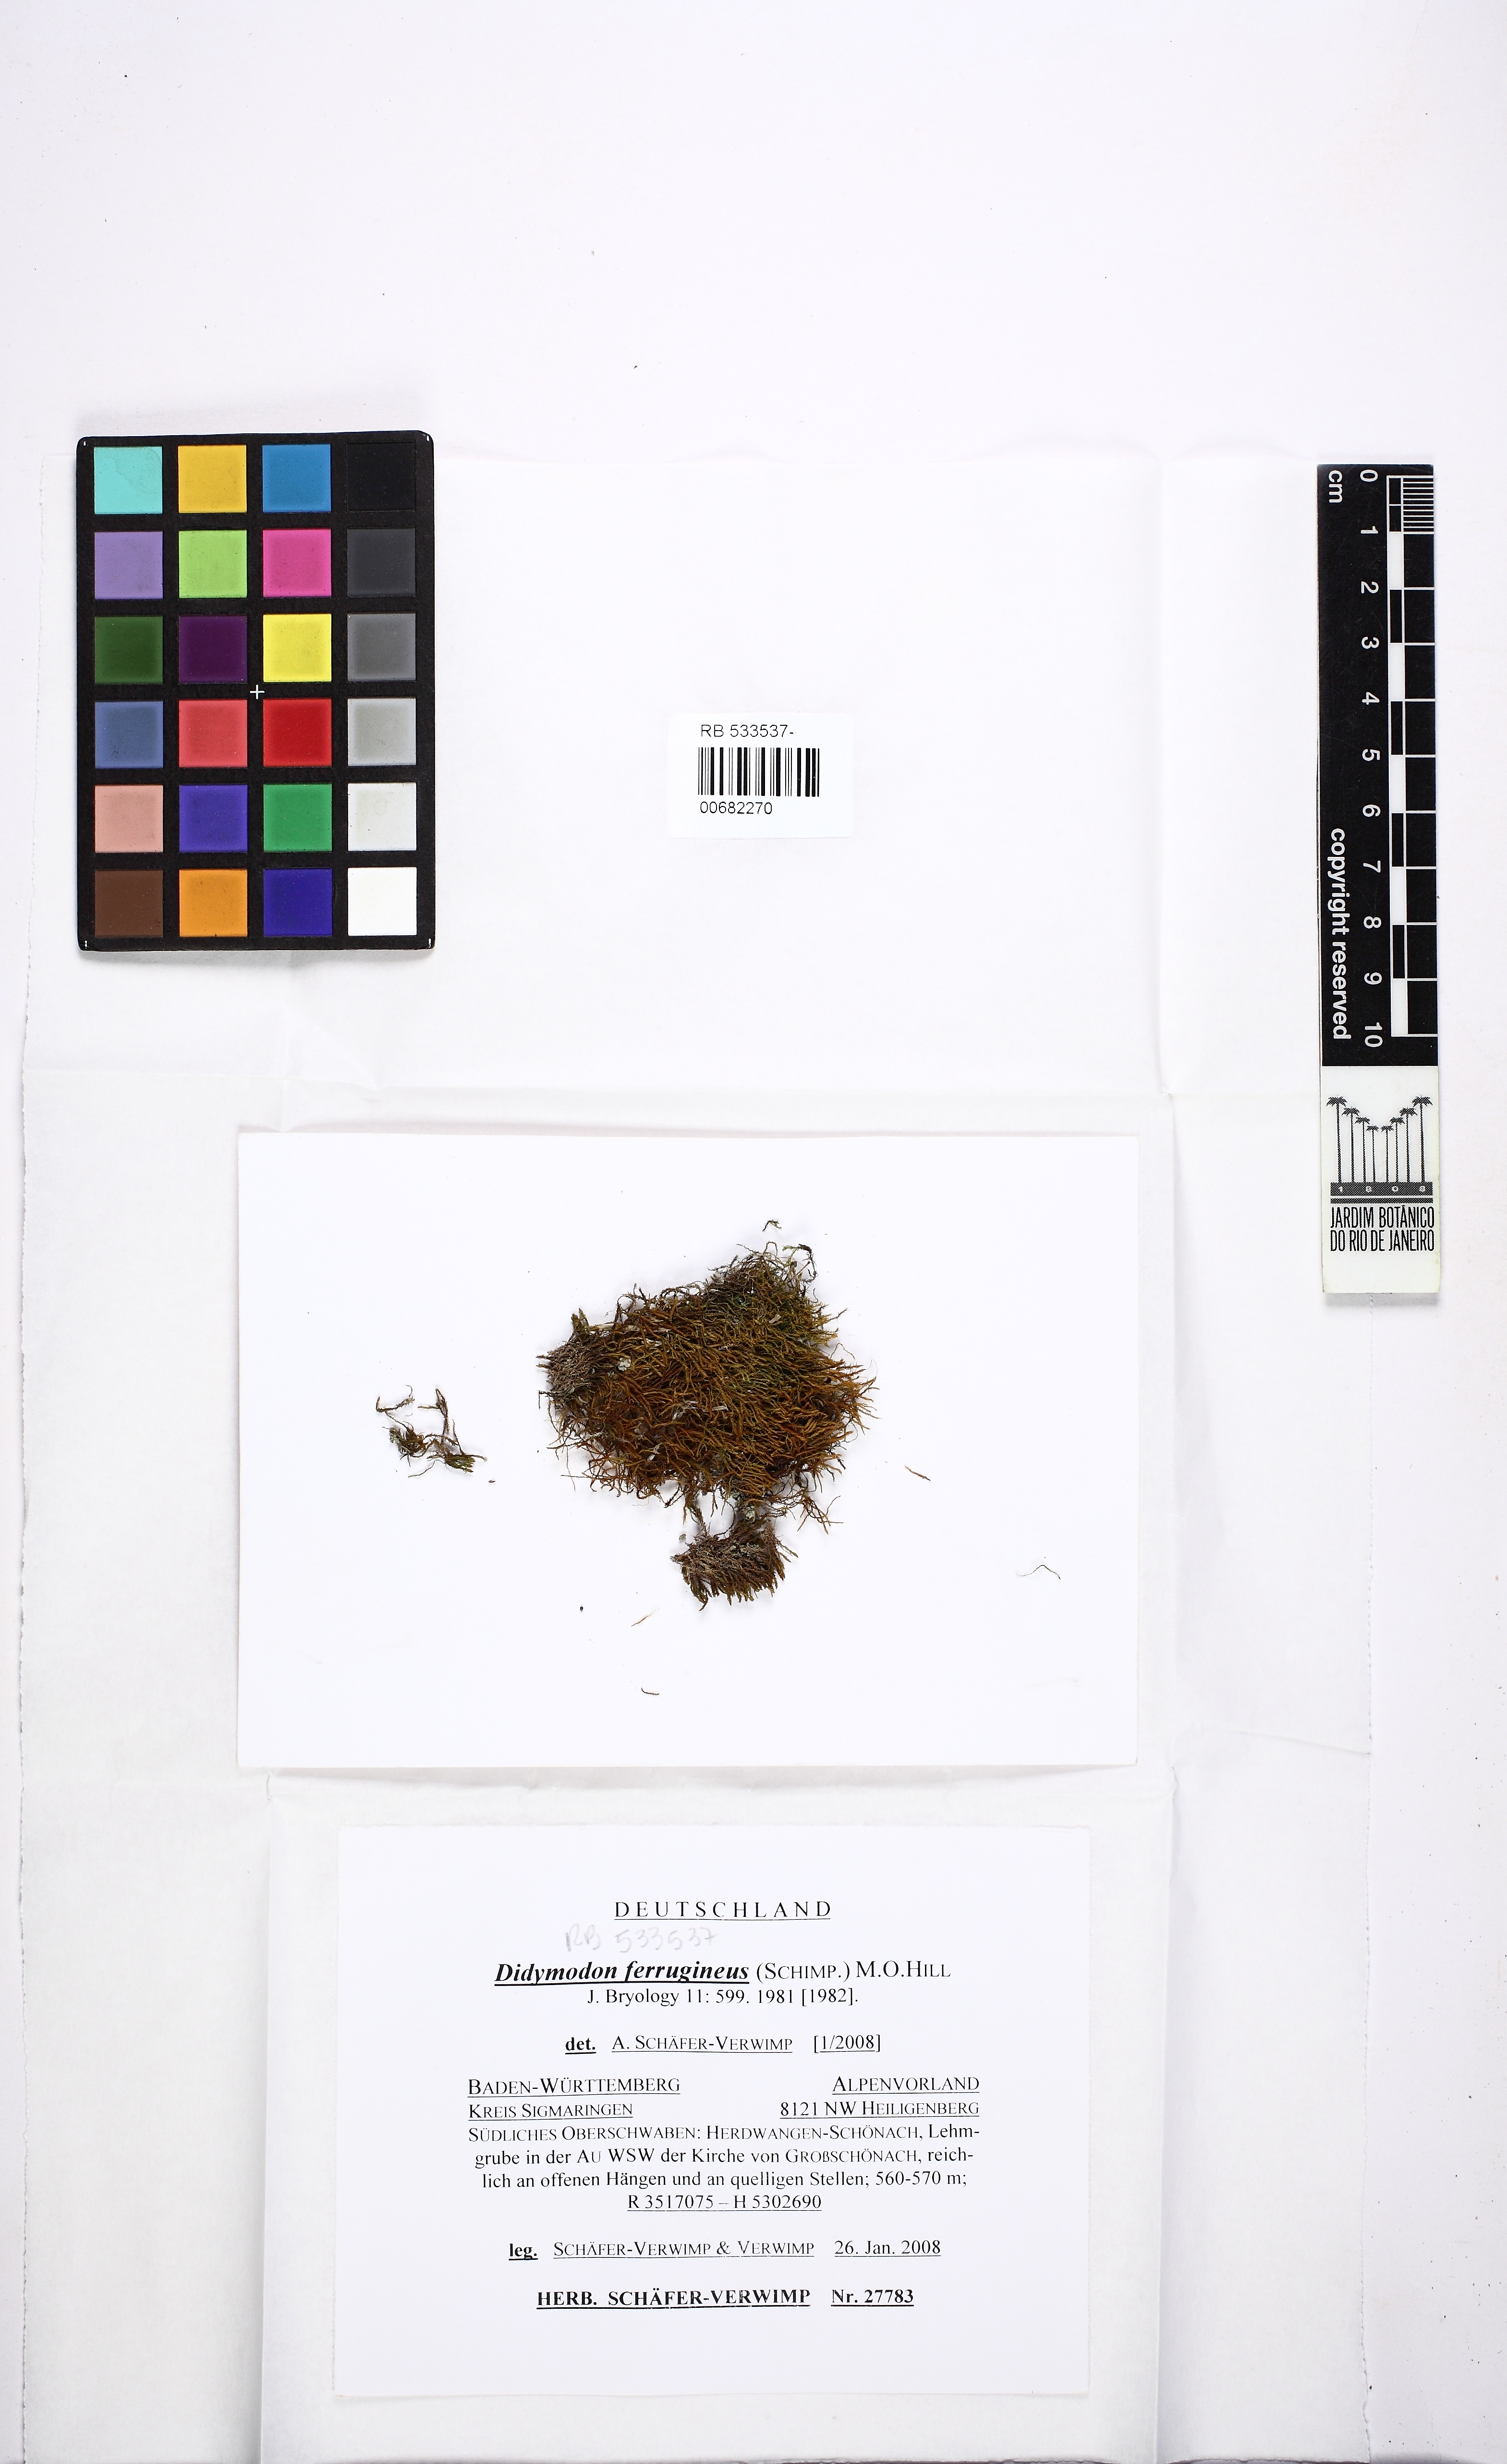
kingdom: Plantae
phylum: Bryophyta
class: Bryopsida
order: Pottiales
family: Pottiaceae
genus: Geheebia
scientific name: Geheebia ferruginea
